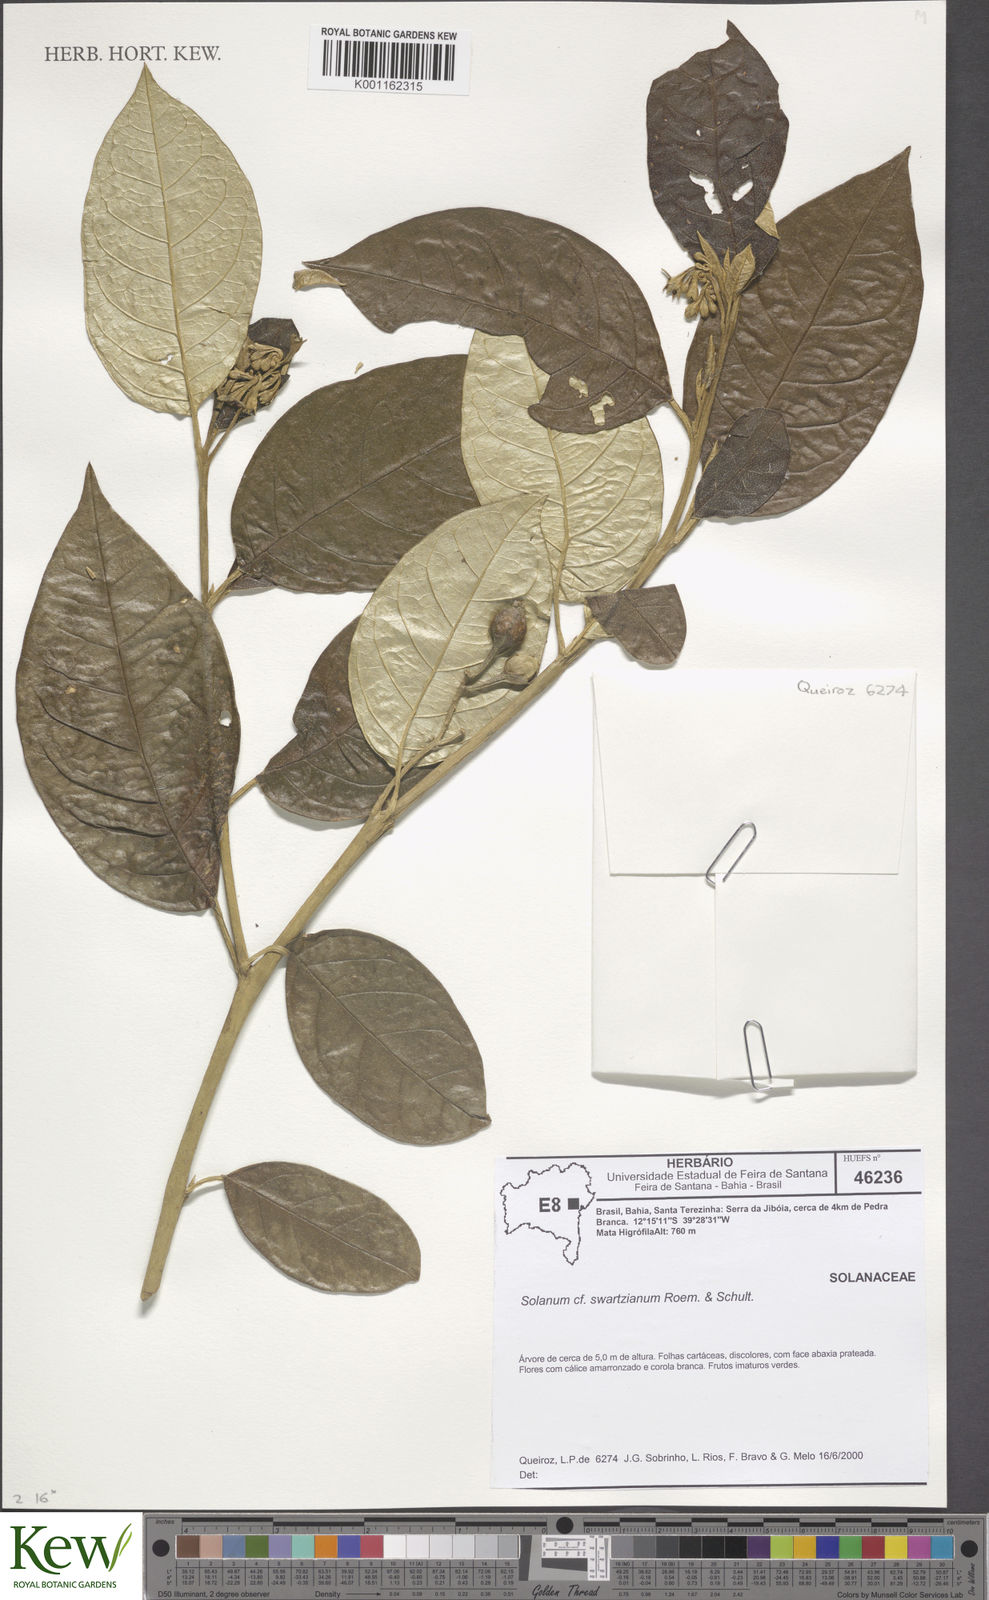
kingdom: Plantae
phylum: Tracheophyta
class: Magnoliopsida
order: Solanales
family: Solanaceae
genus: Solanum
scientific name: Solanum swartzianum
